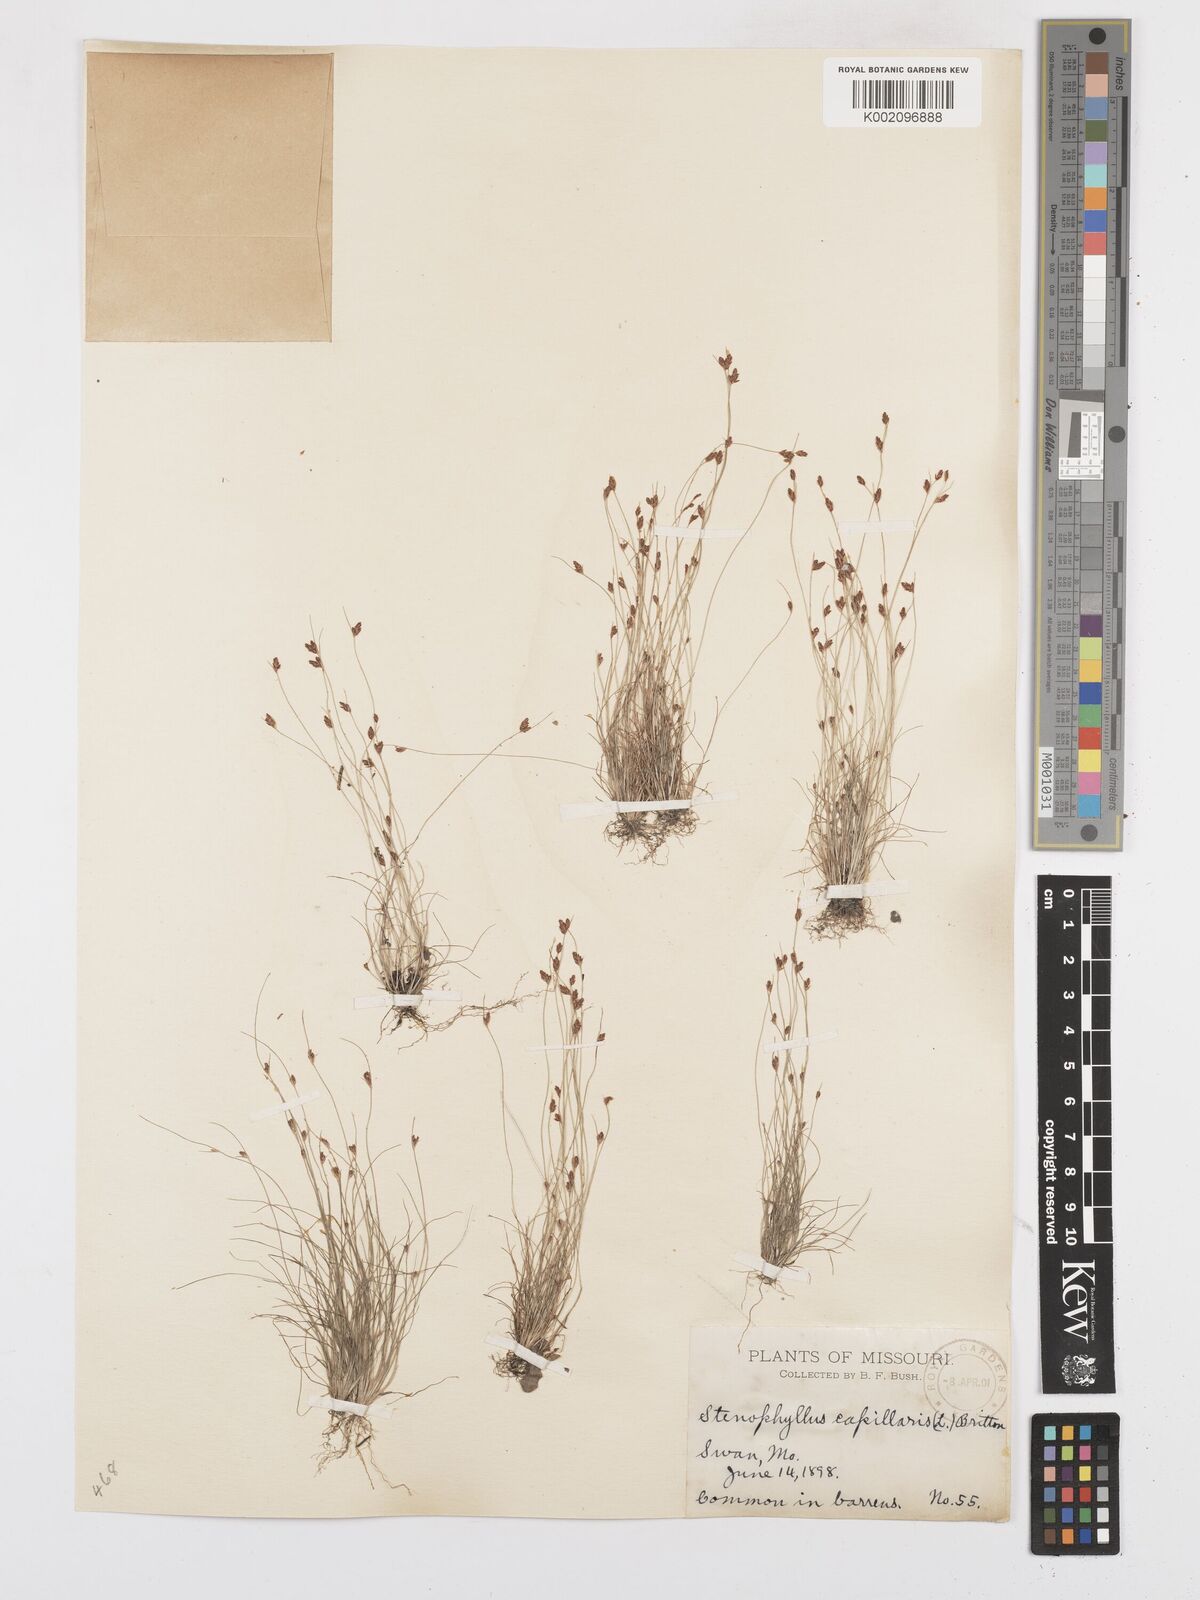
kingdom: Plantae
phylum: Tracheophyta
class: Liliopsida
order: Poales
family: Cyperaceae
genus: Bulbostylis
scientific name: Bulbostylis capillaris
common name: Densetuft hairsedge
